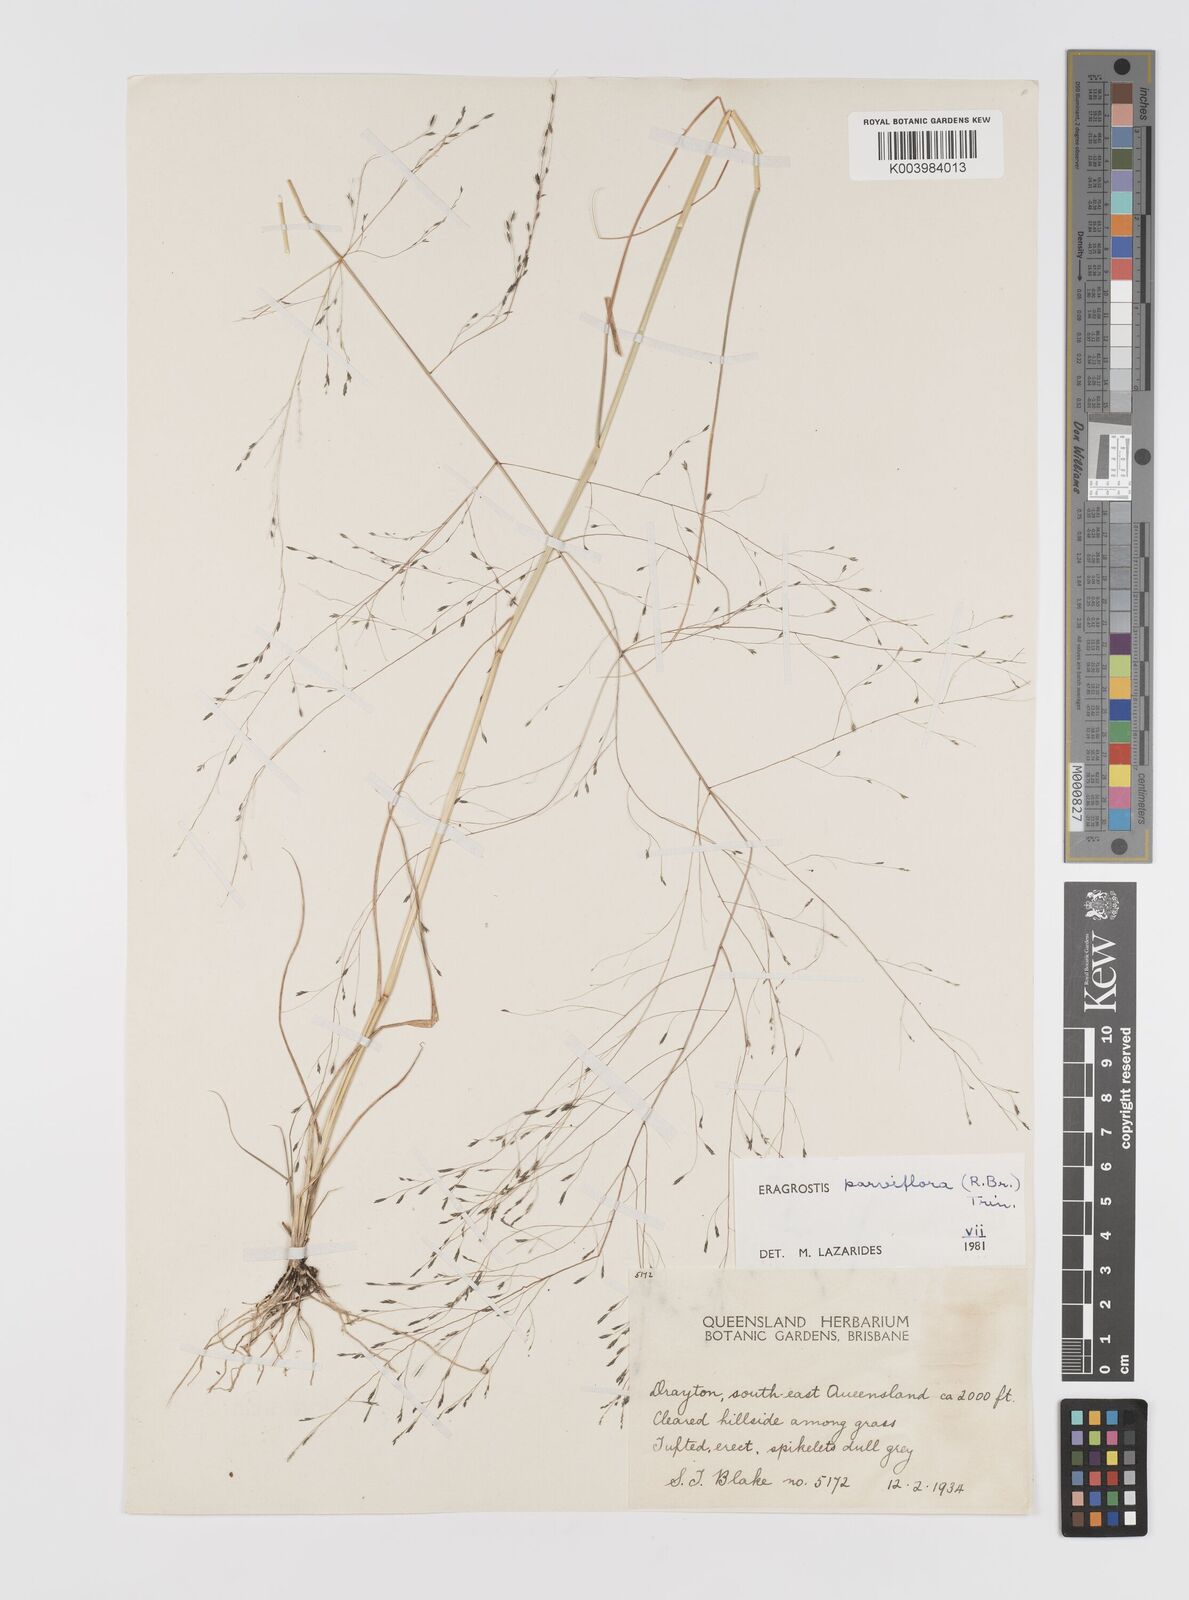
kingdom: Plantae
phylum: Tracheophyta
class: Liliopsida
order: Poales
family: Poaceae
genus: Eragrostis
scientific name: Eragrostis parviflora
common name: Weeping love-grass
